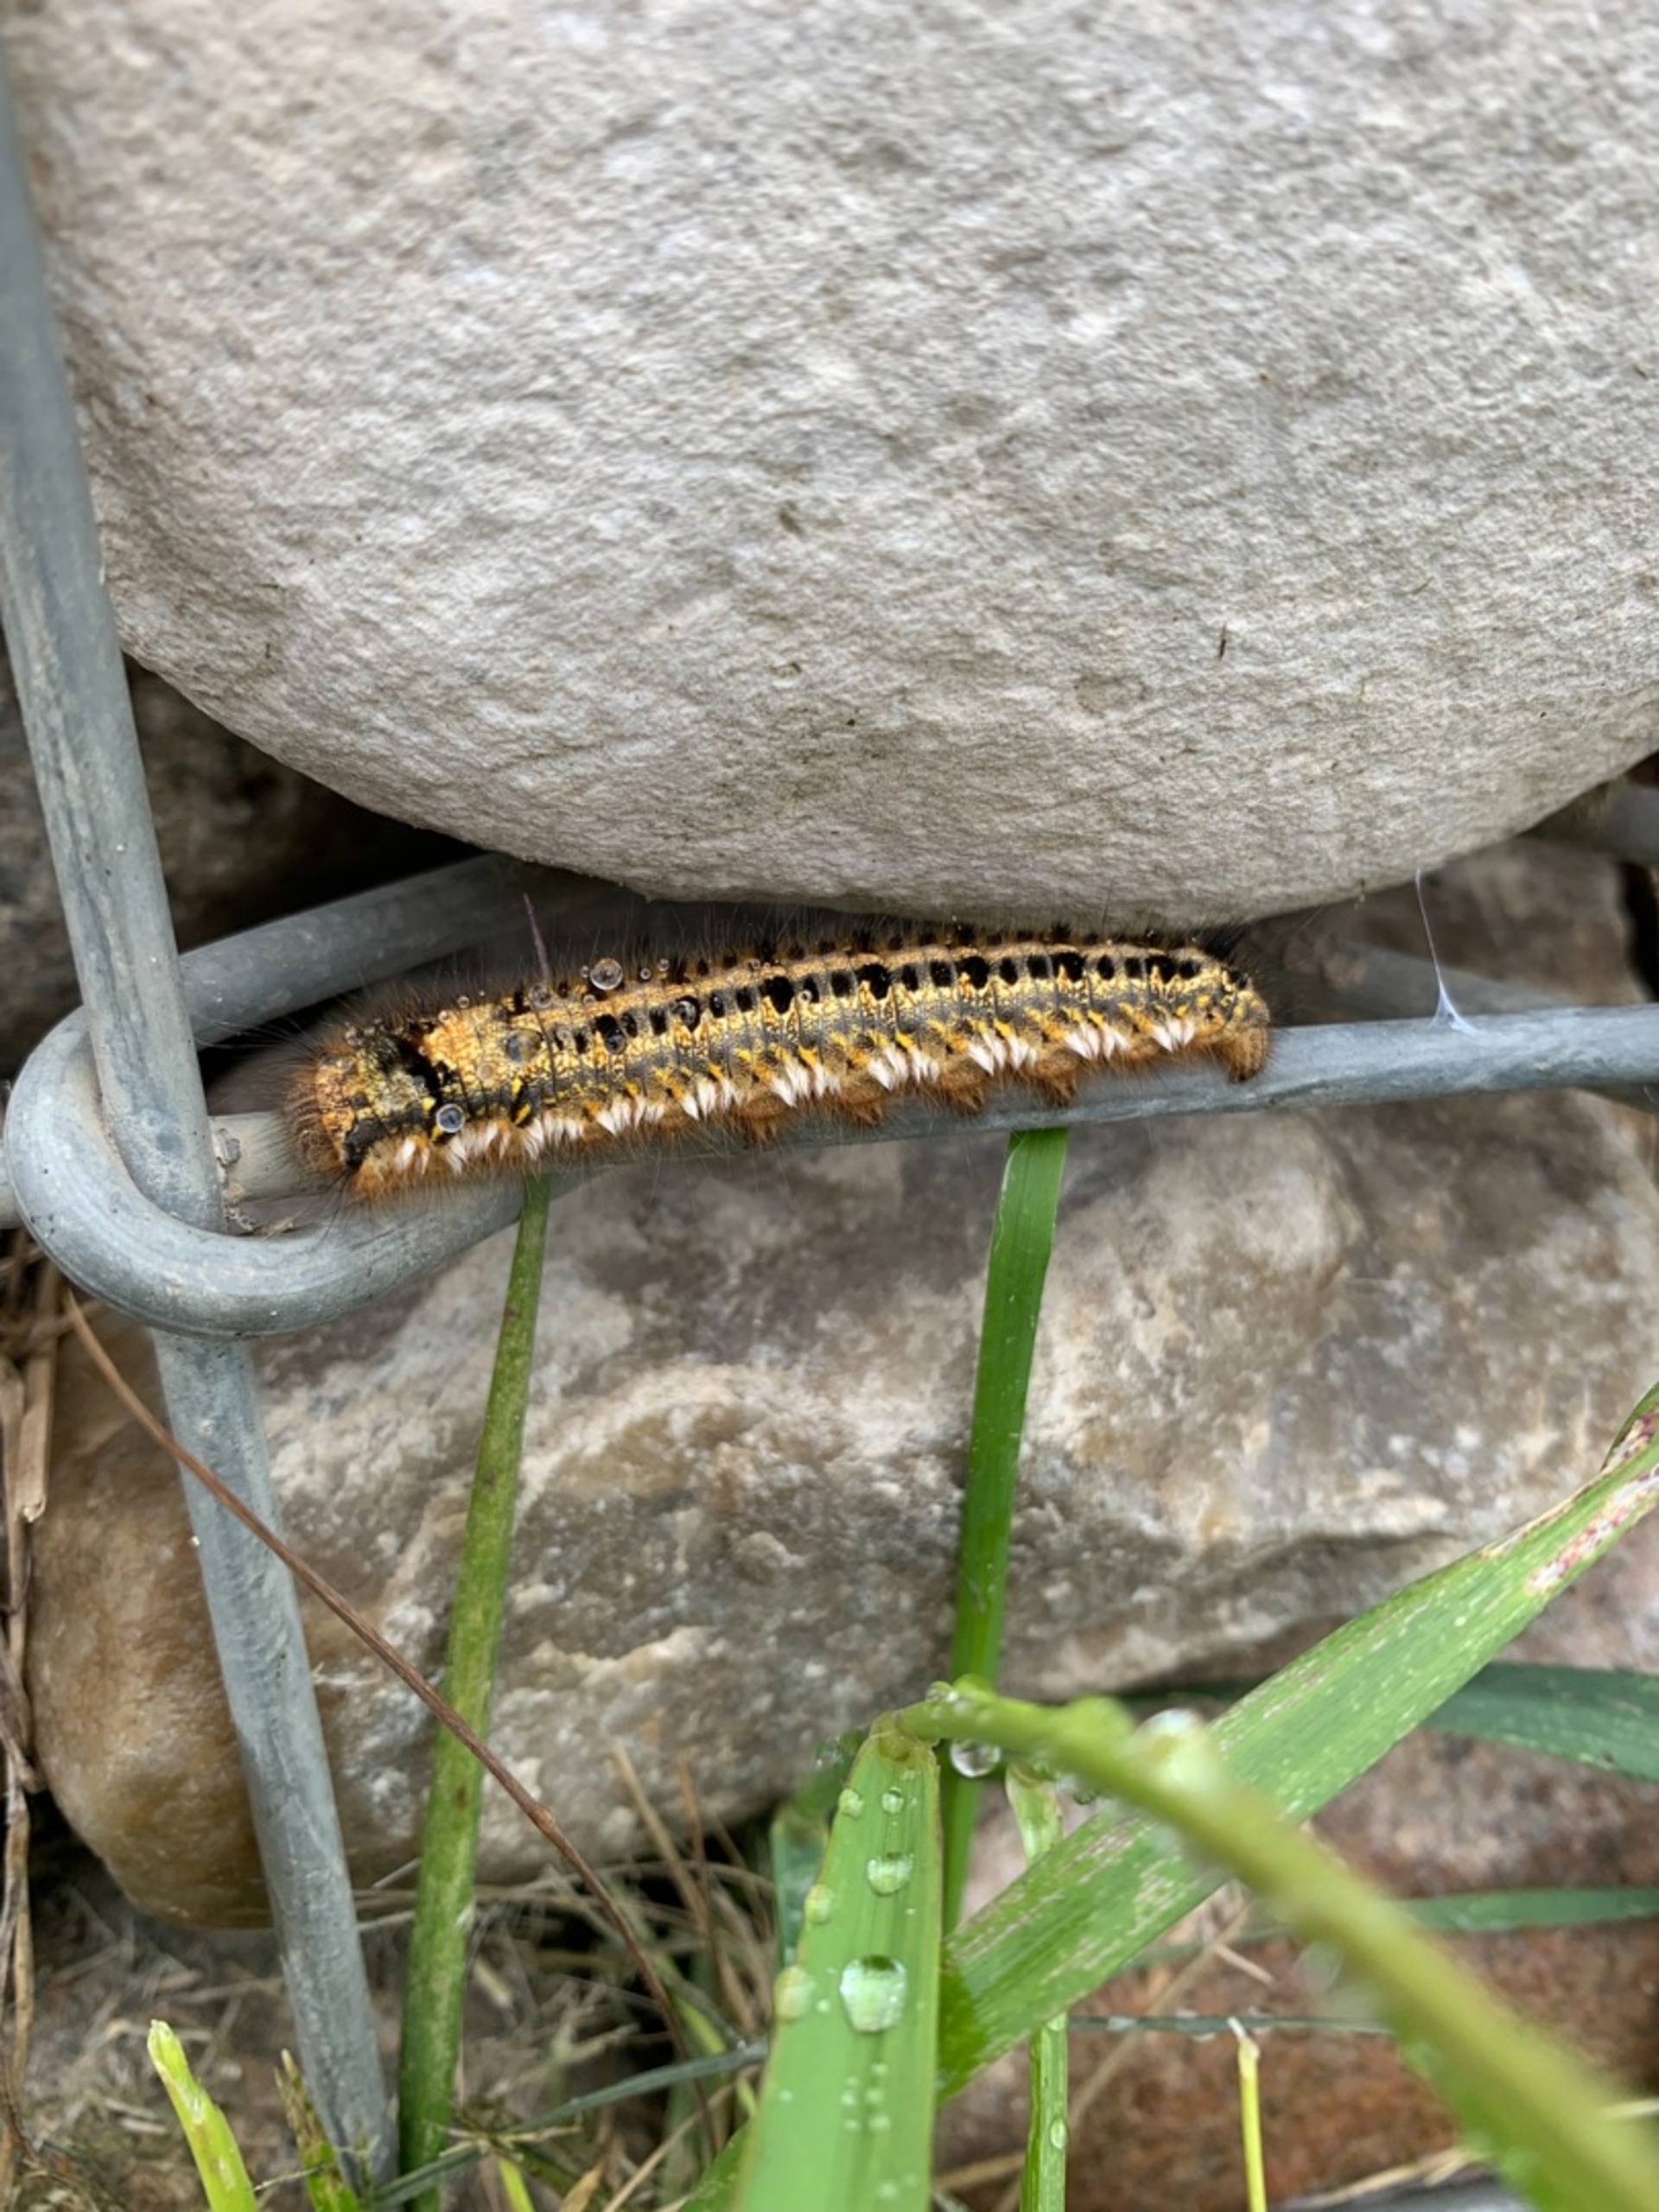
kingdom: Animalia
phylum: Arthropoda
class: Insecta
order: Lepidoptera
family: Lasiocampidae
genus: Euthrix
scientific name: Euthrix potatoria
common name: Græsspinder
